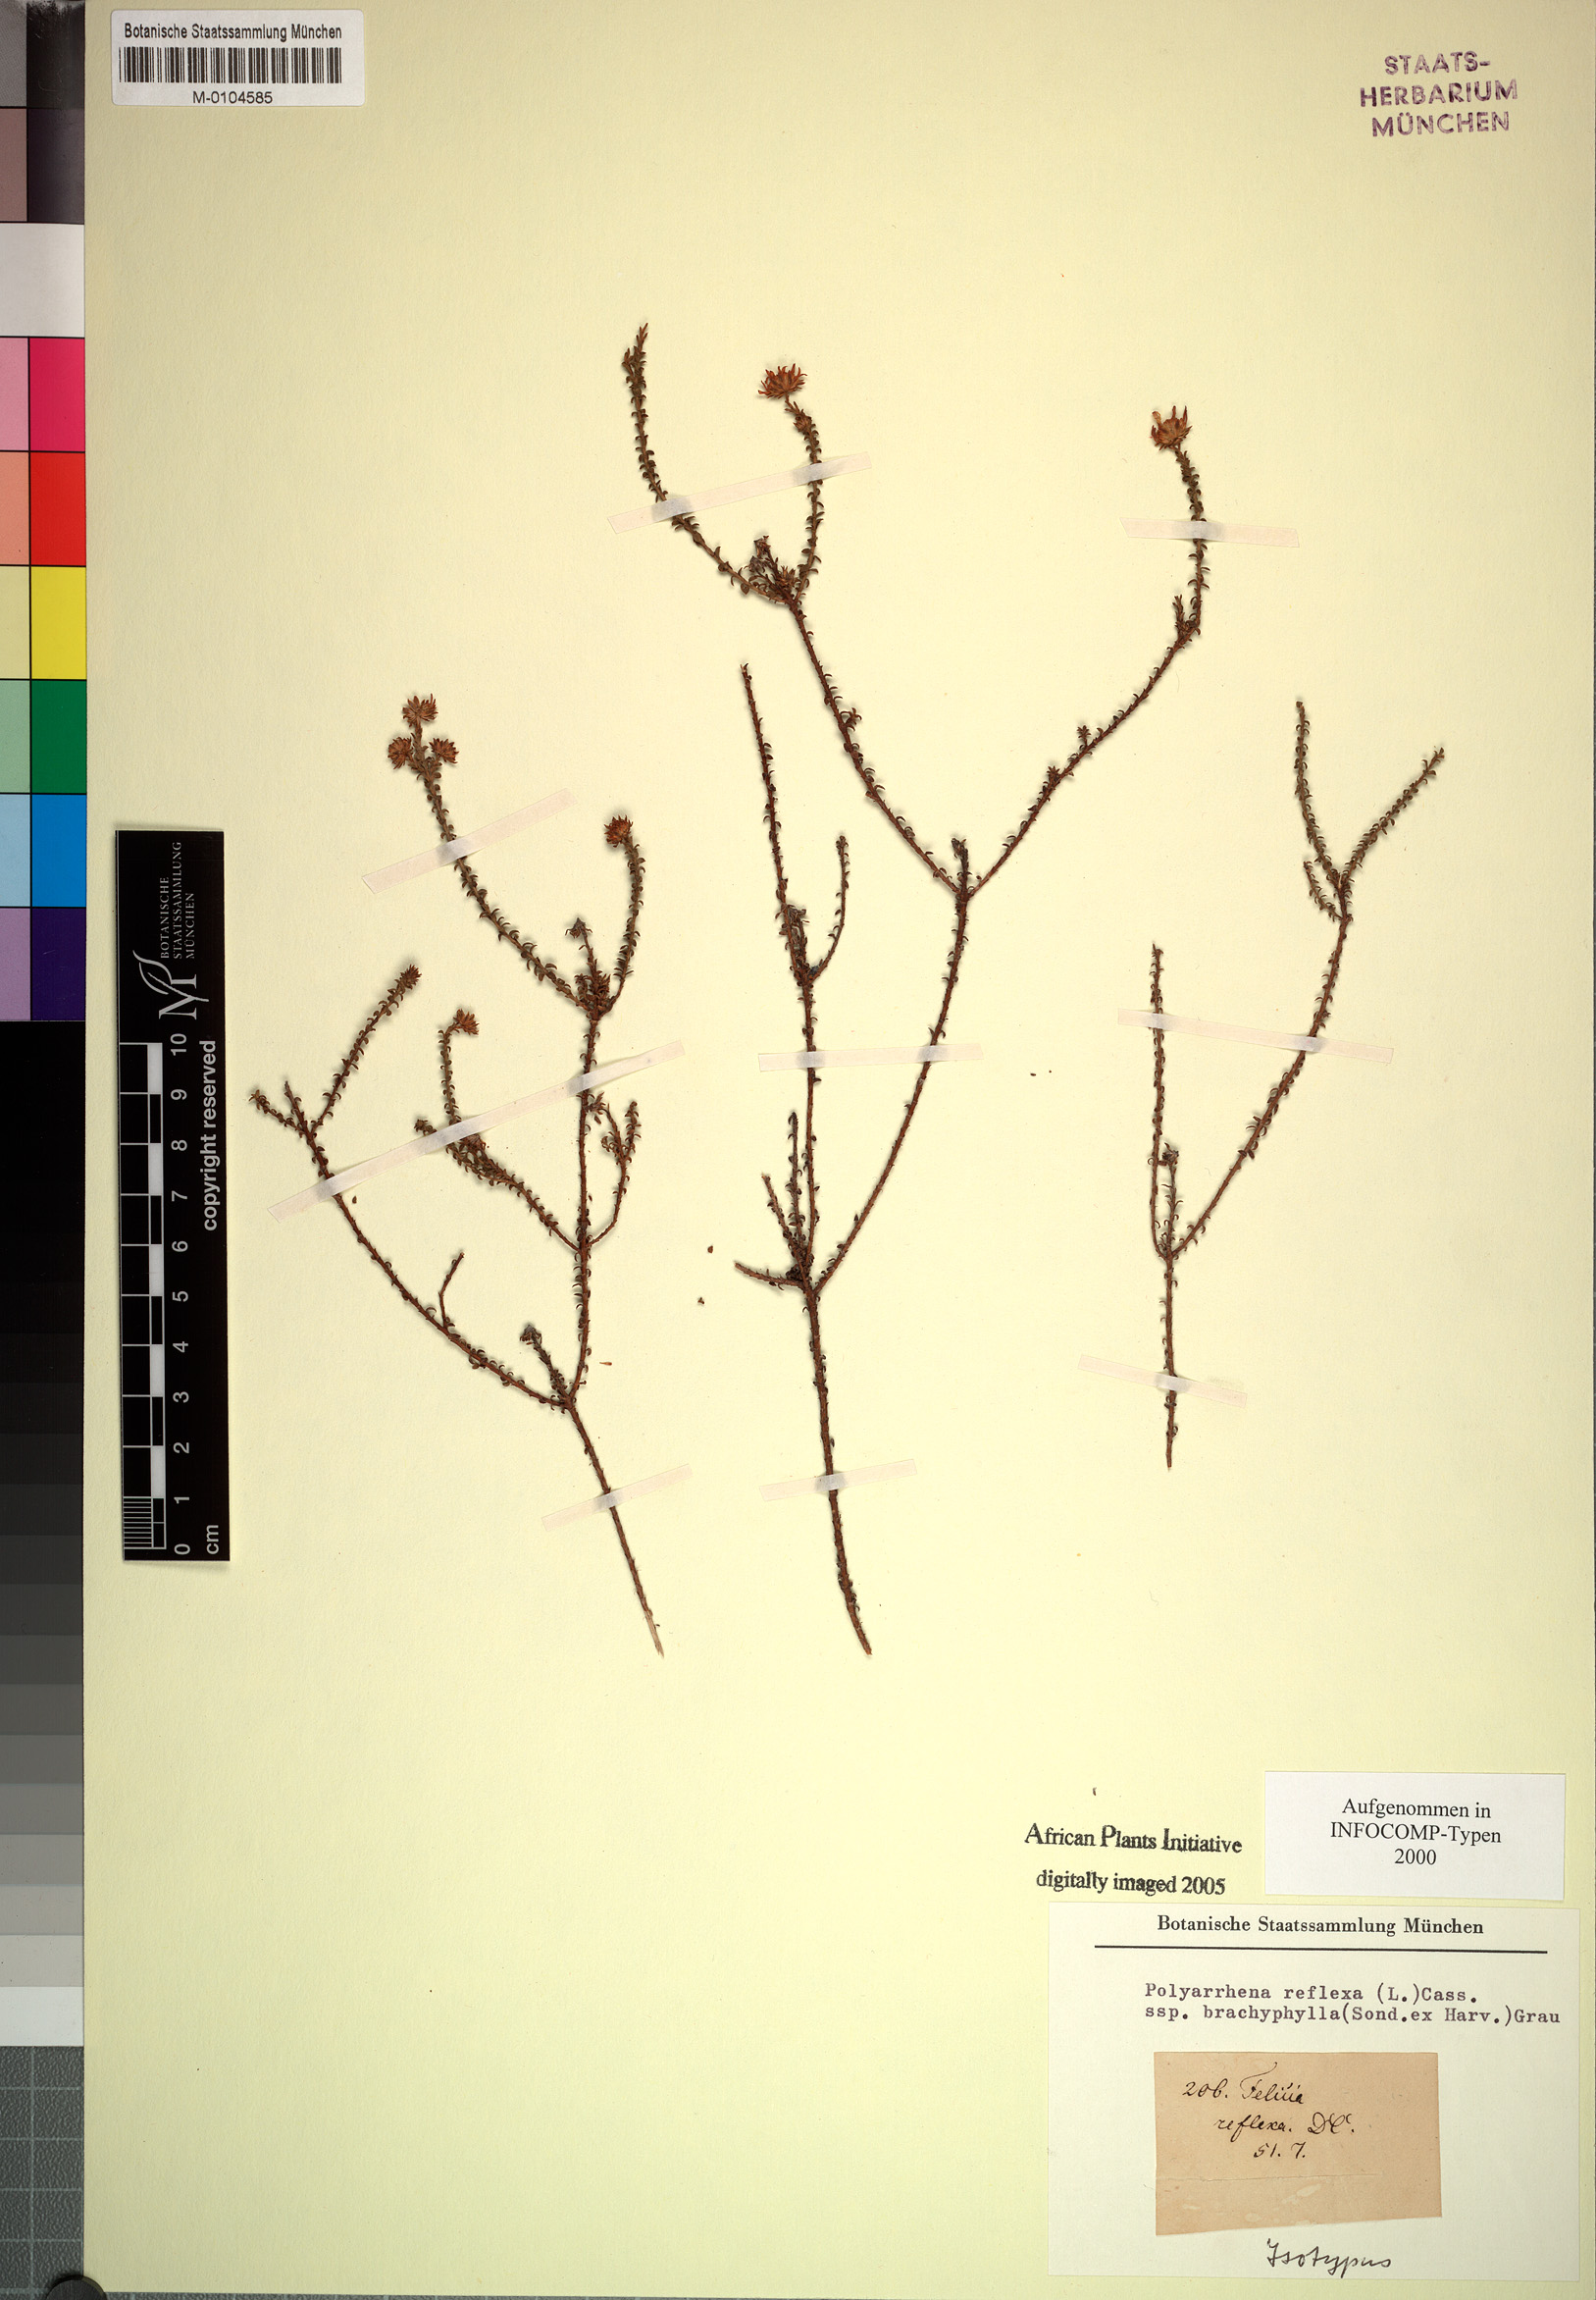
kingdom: Plantae
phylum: Tracheophyta
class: Magnoliopsida
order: Asterales
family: Asteraceae
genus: Polyarrhena
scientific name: Polyarrhena reflexa
